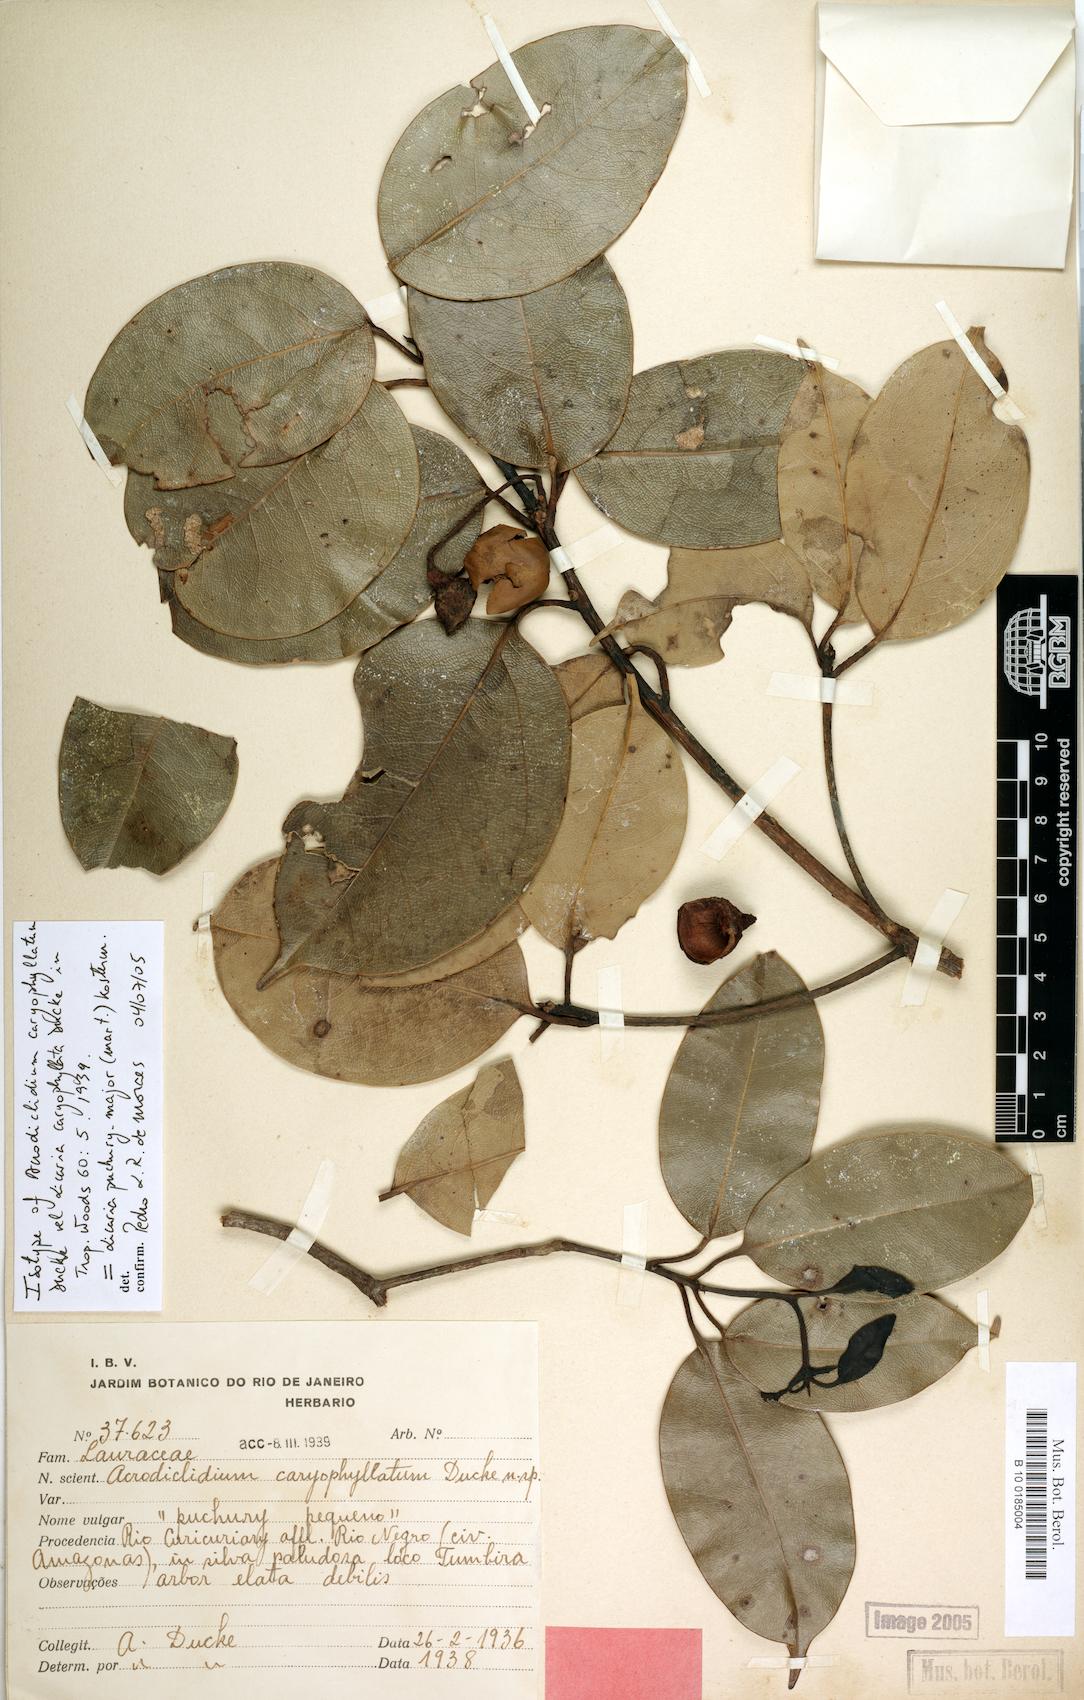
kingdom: Plantae
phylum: Tracheophyta
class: Magnoliopsida
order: Laurales
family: Lauraceae
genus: Licaria
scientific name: Licaria caryophyllata
